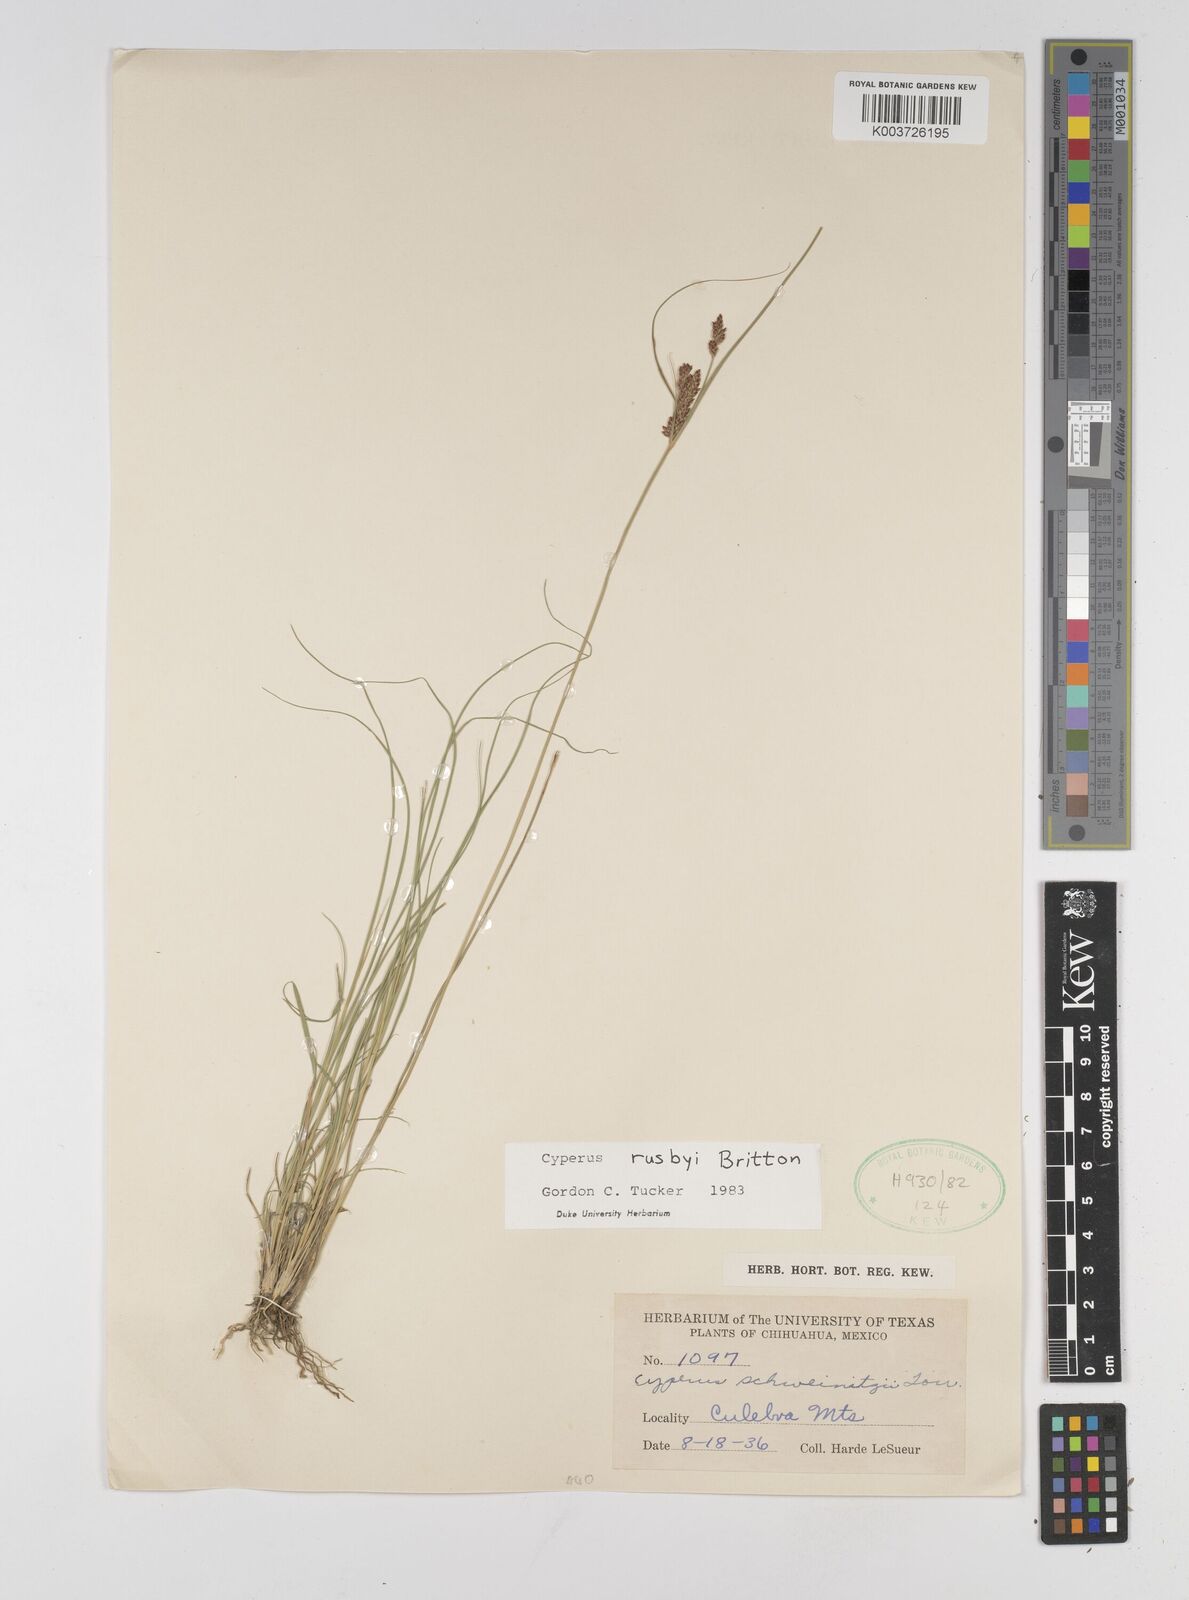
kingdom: Plantae
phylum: Tracheophyta
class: Liliopsida
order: Poales
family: Cyperaceae
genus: Cyperus
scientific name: Cyperus sphaerolepis
